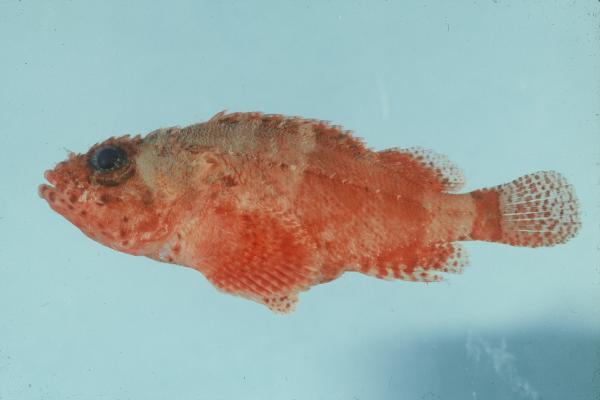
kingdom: Animalia
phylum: Chordata
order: Scorpaeniformes
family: Scorpaenidae
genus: Scorpaenodes
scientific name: Scorpaenodes parvipinnis
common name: Coral scorpionfish
